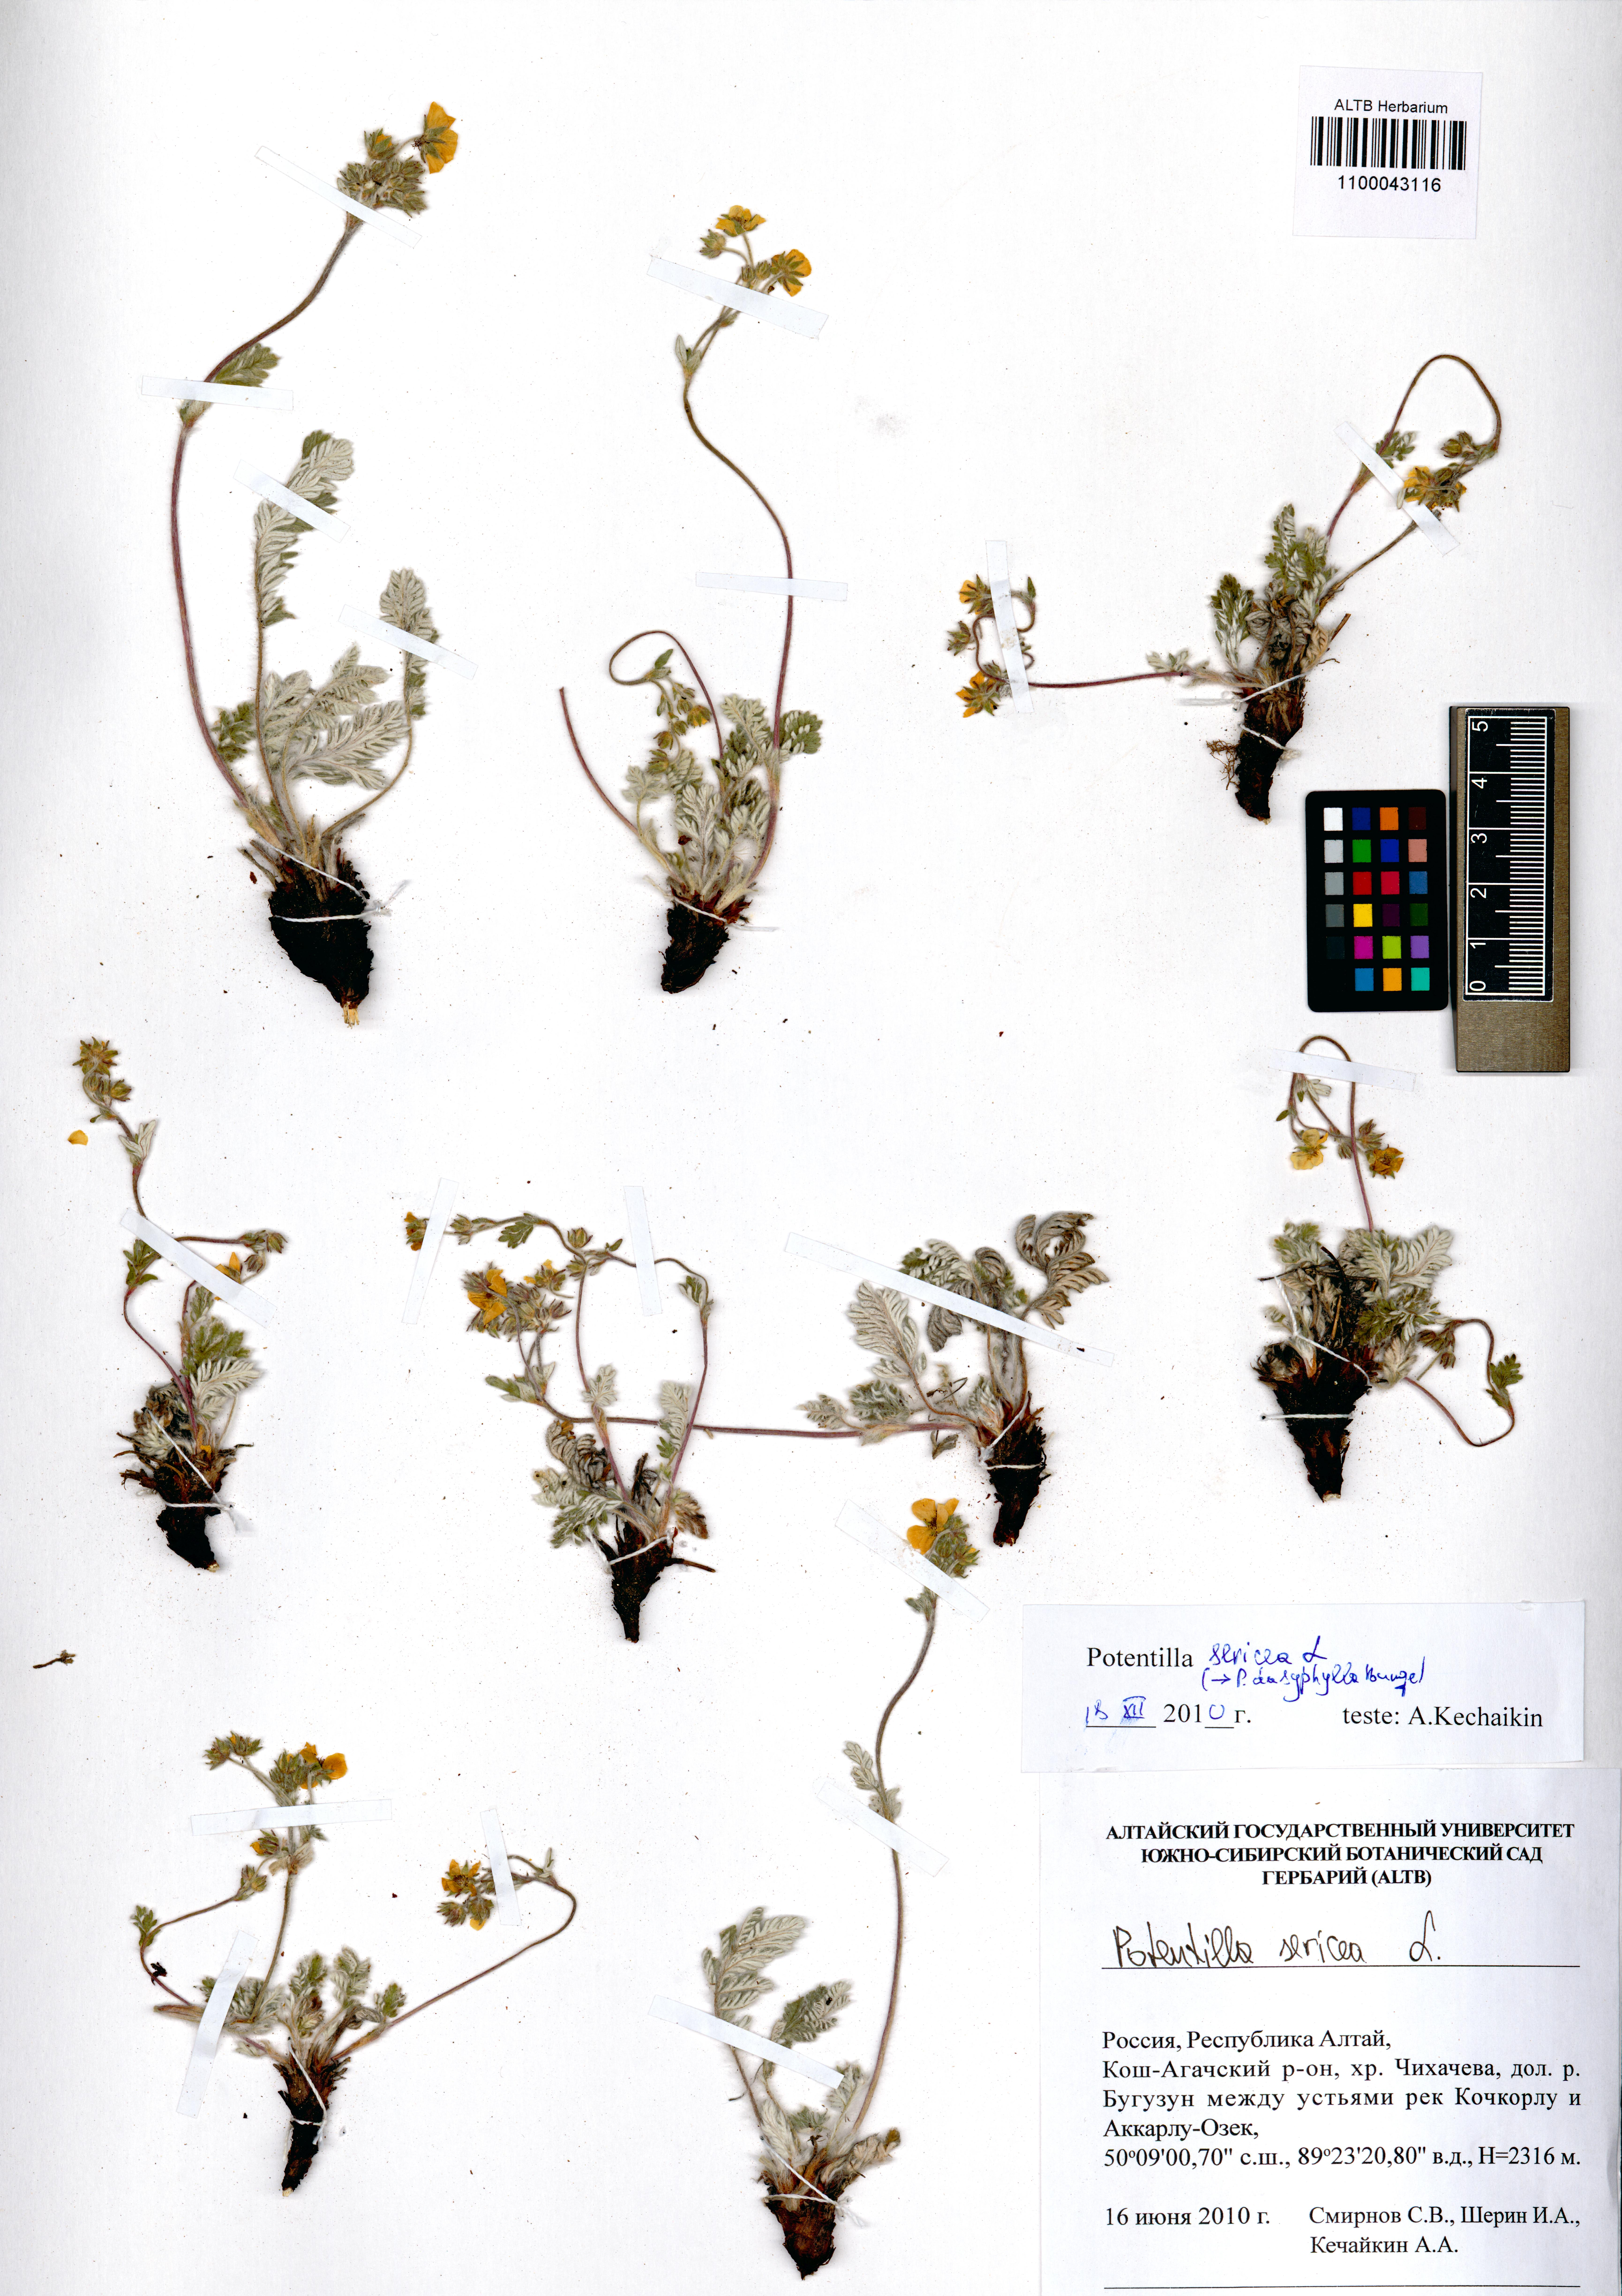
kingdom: Plantae
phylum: Tracheophyta
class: Magnoliopsida
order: Rosales
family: Rosaceae
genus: Potentilla
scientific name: Potentilla sericea
